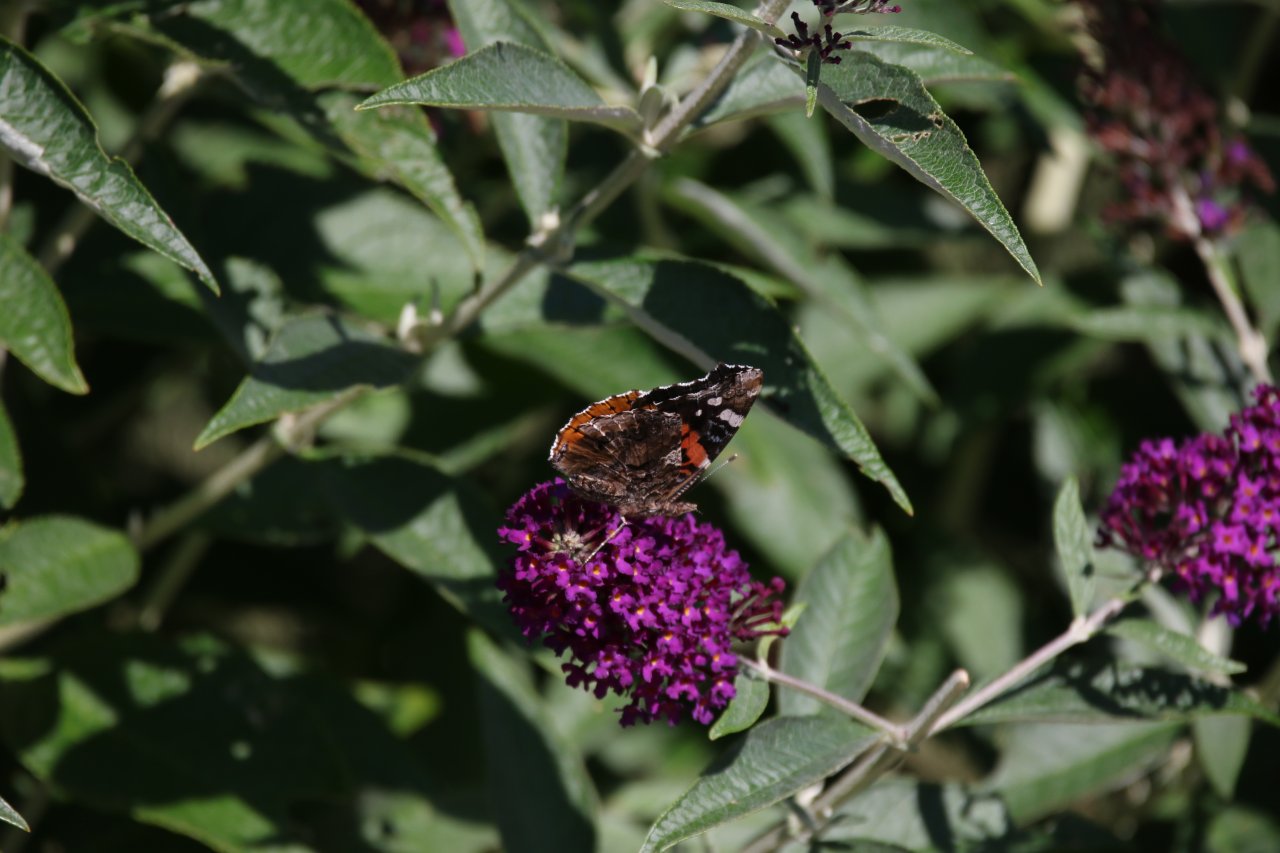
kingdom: Animalia
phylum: Arthropoda
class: Insecta
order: Lepidoptera
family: Nymphalidae
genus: Vanessa
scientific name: Vanessa atalanta
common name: Red Admiral
